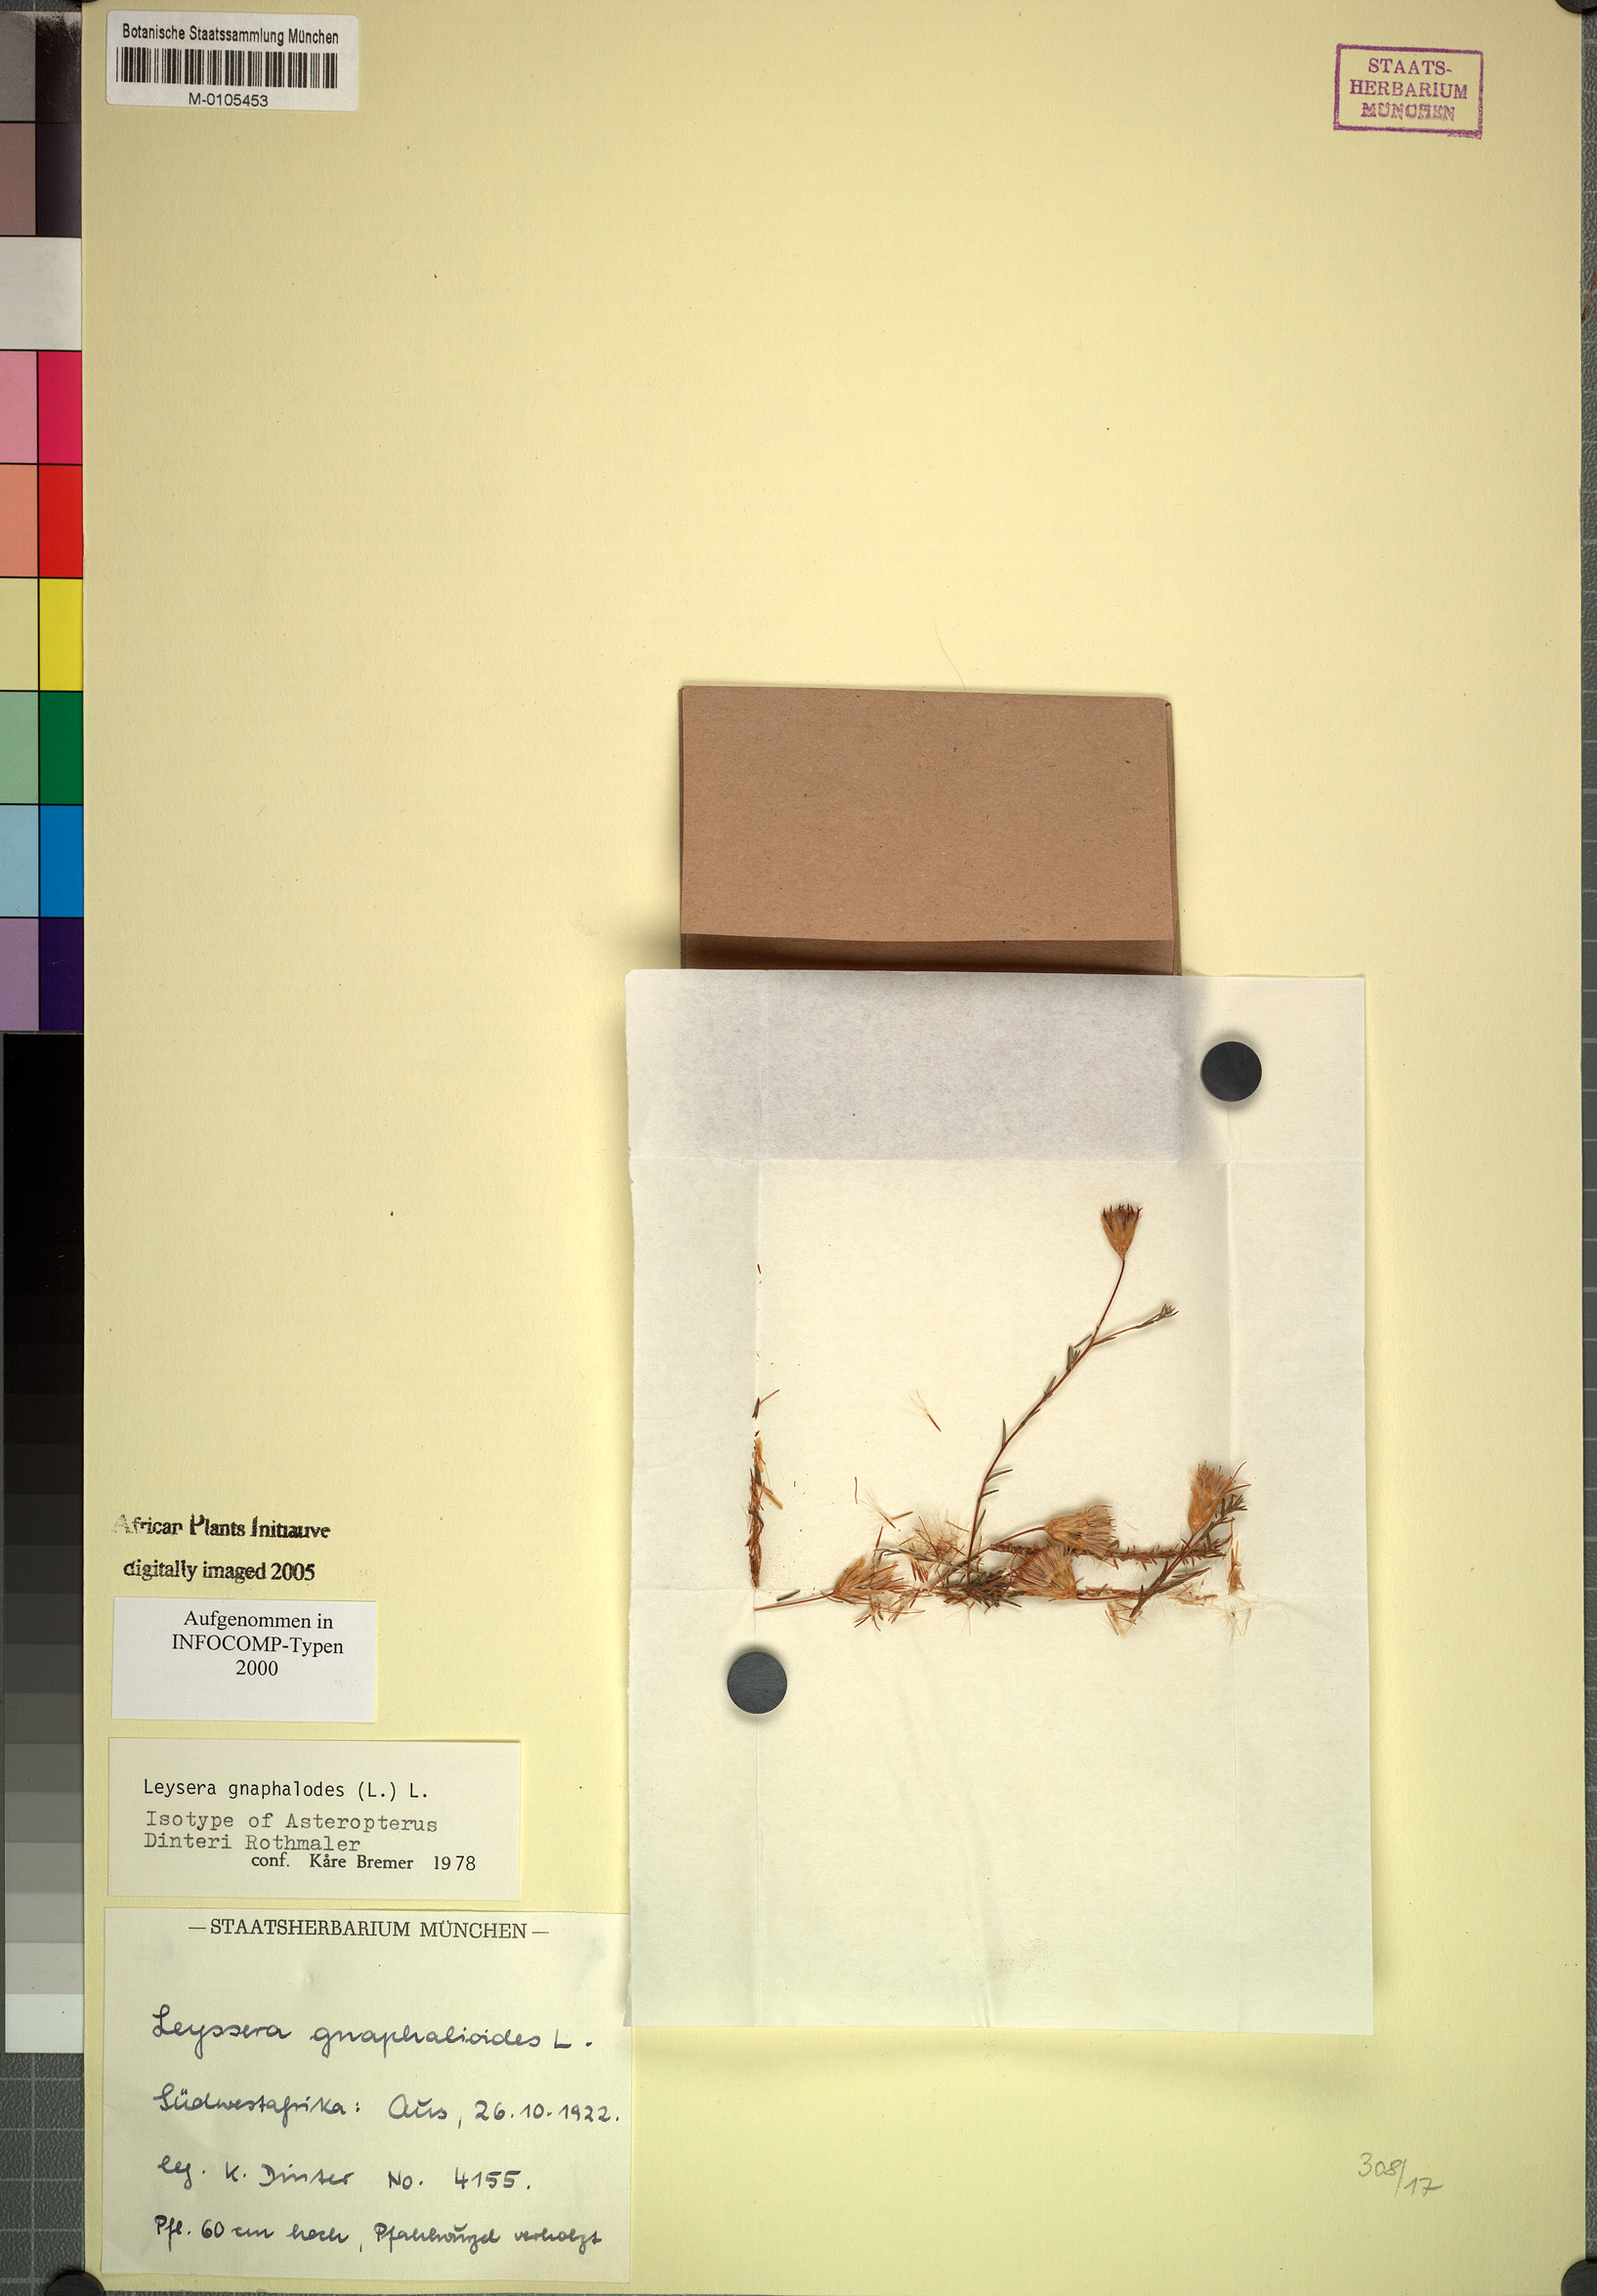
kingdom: Plantae
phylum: Tracheophyta
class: Magnoliopsida
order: Asterales
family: Asteraceae
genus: Leysera
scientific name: Leysera gnaphalodes
